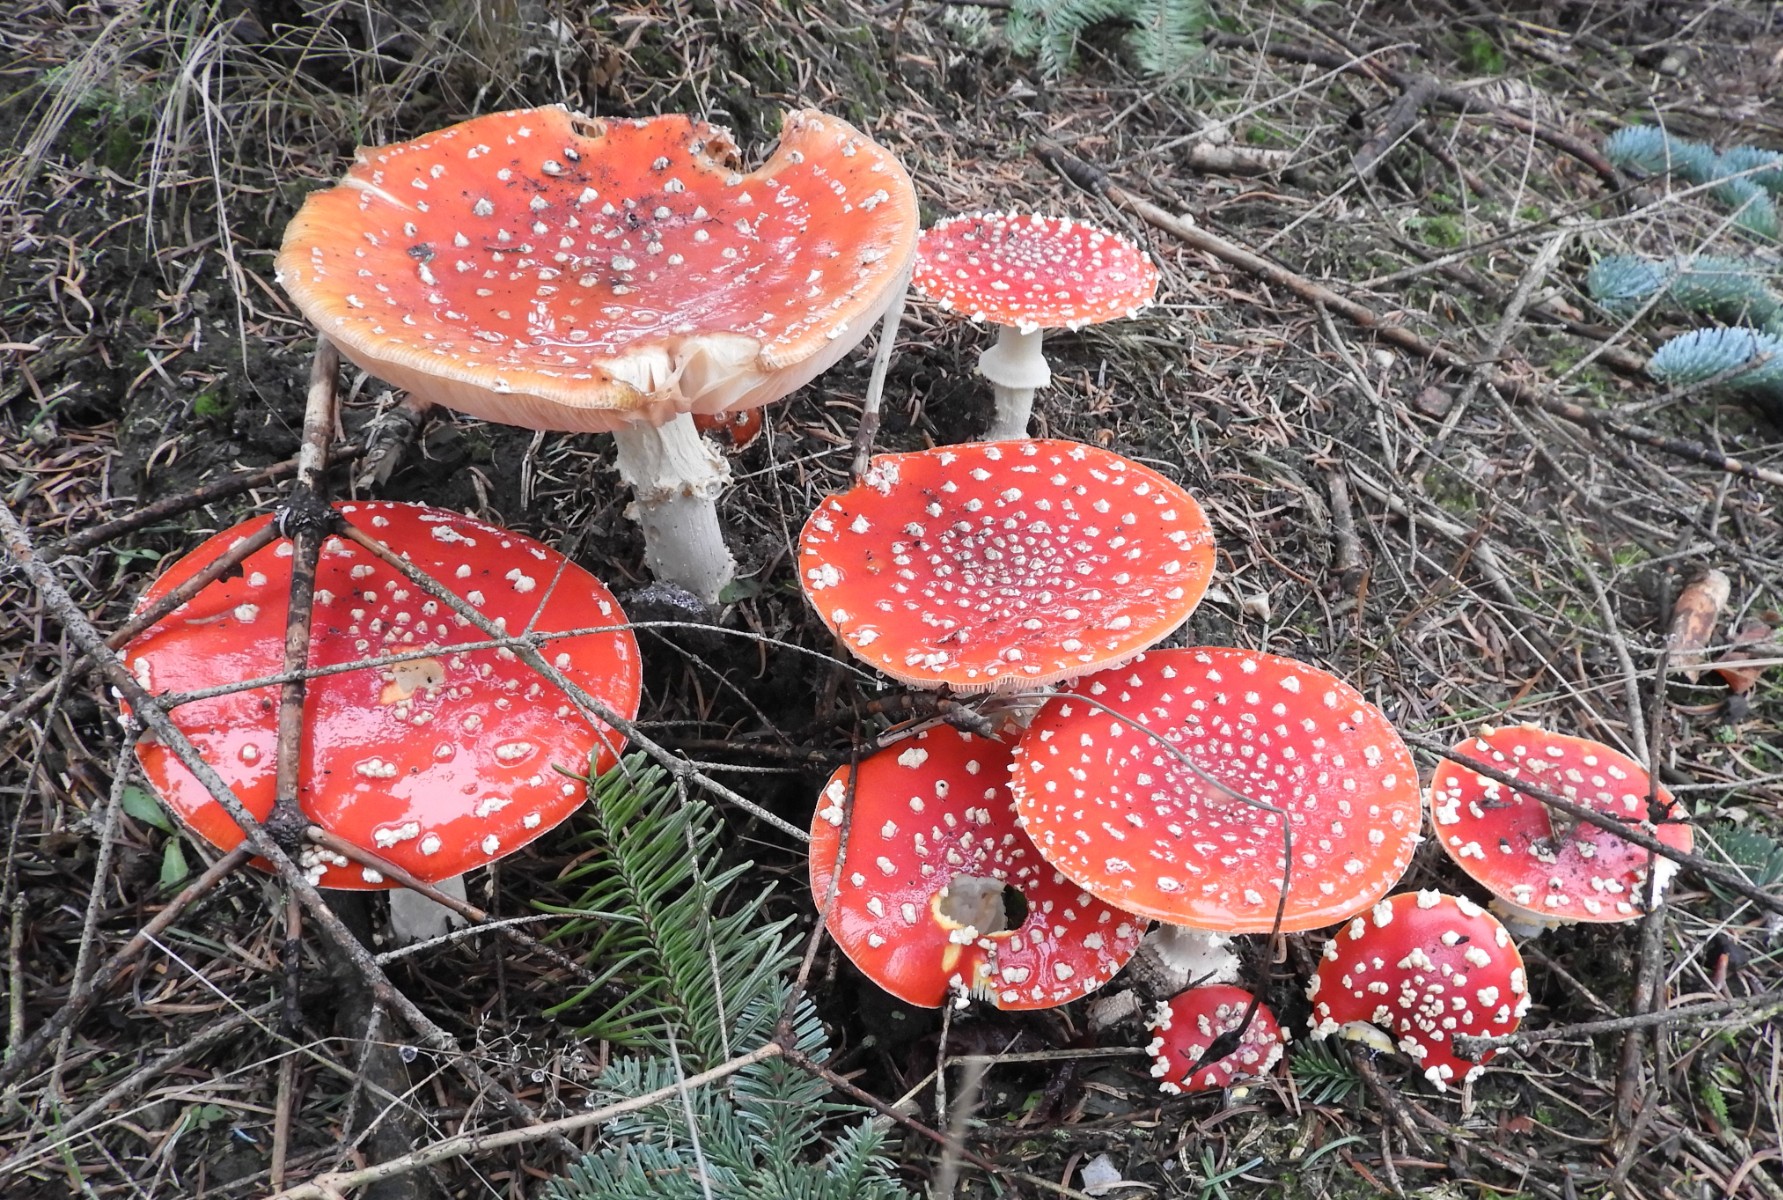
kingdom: Fungi
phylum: Basidiomycota
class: Agaricomycetes
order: Agaricales
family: Amanitaceae
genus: Amanita
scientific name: Amanita muscaria
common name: rød fluesvamp
